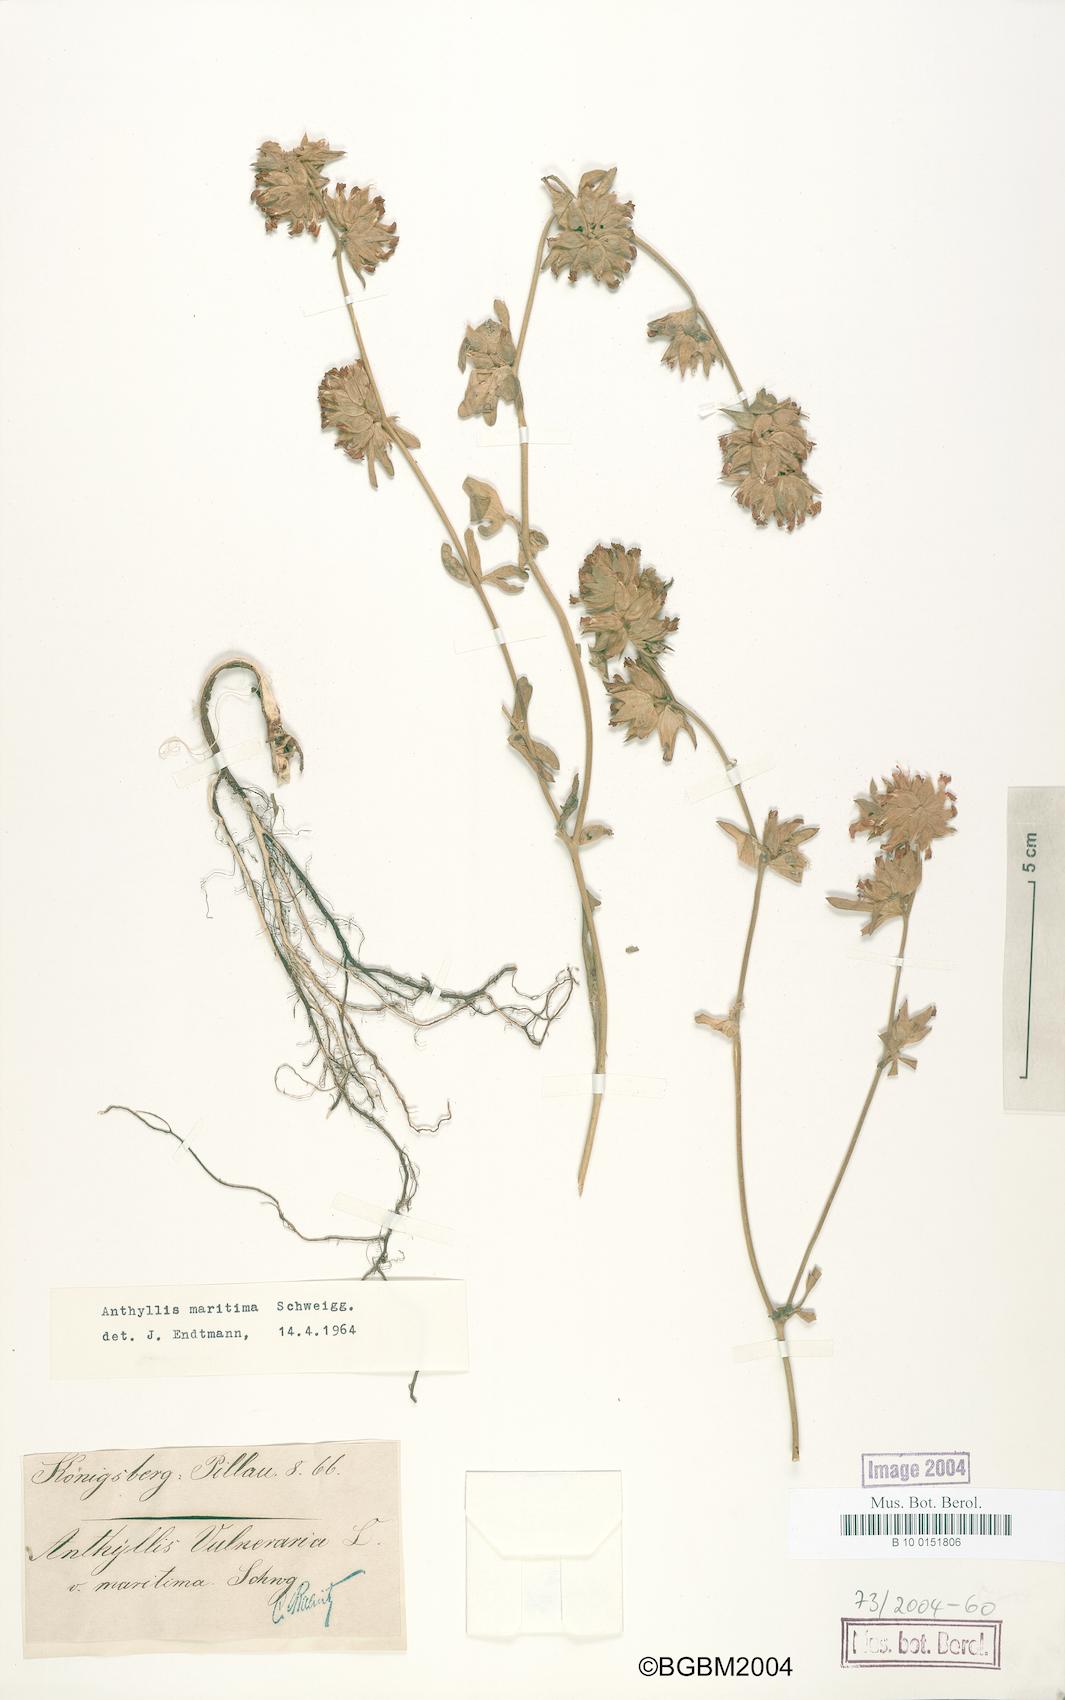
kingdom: Plantae
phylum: Tracheophyta
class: Magnoliopsida
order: Fabales
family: Fabaceae
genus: Anthyllis
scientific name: Anthyllis vulneraria
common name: Kidney vetch
